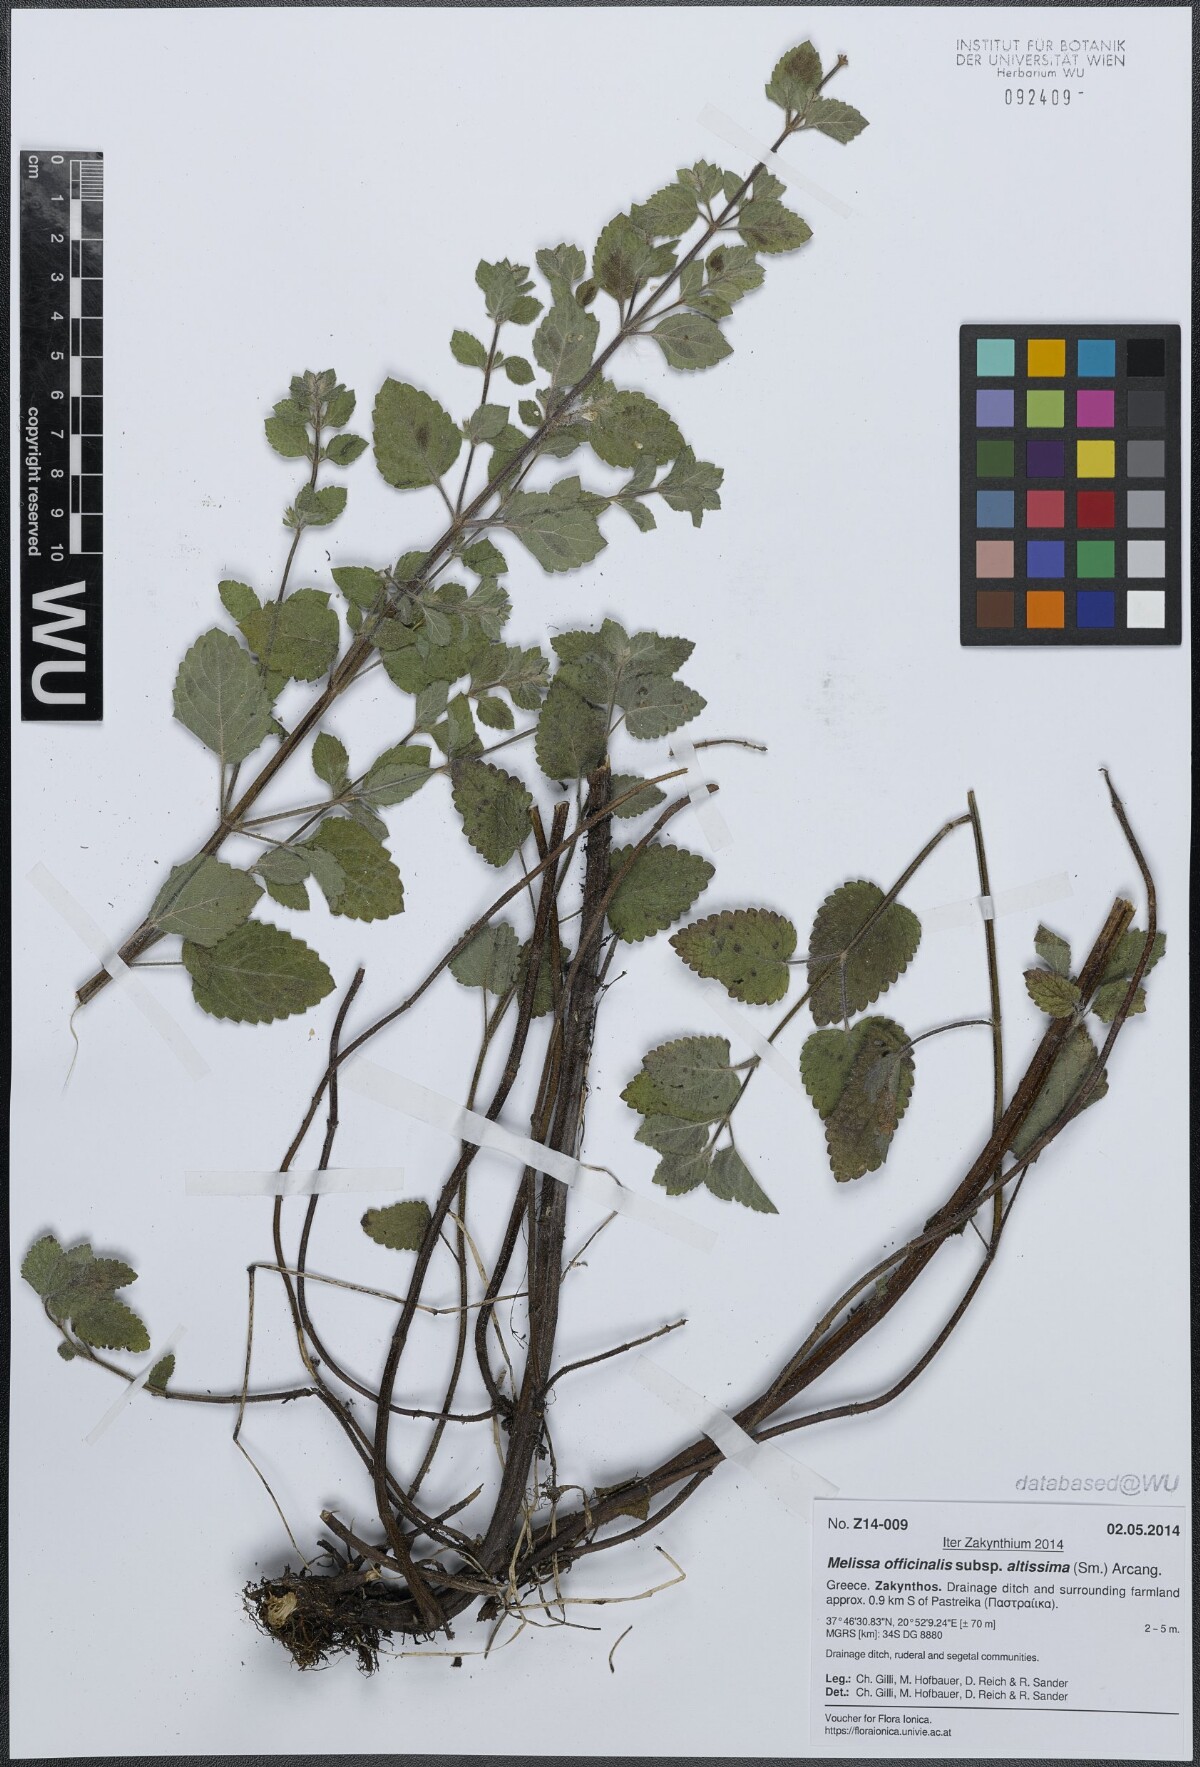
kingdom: Plantae
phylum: Tracheophyta
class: Magnoliopsida
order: Lamiales
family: Lamiaceae
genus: Melissa
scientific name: Melissa officinalis
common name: Balm
